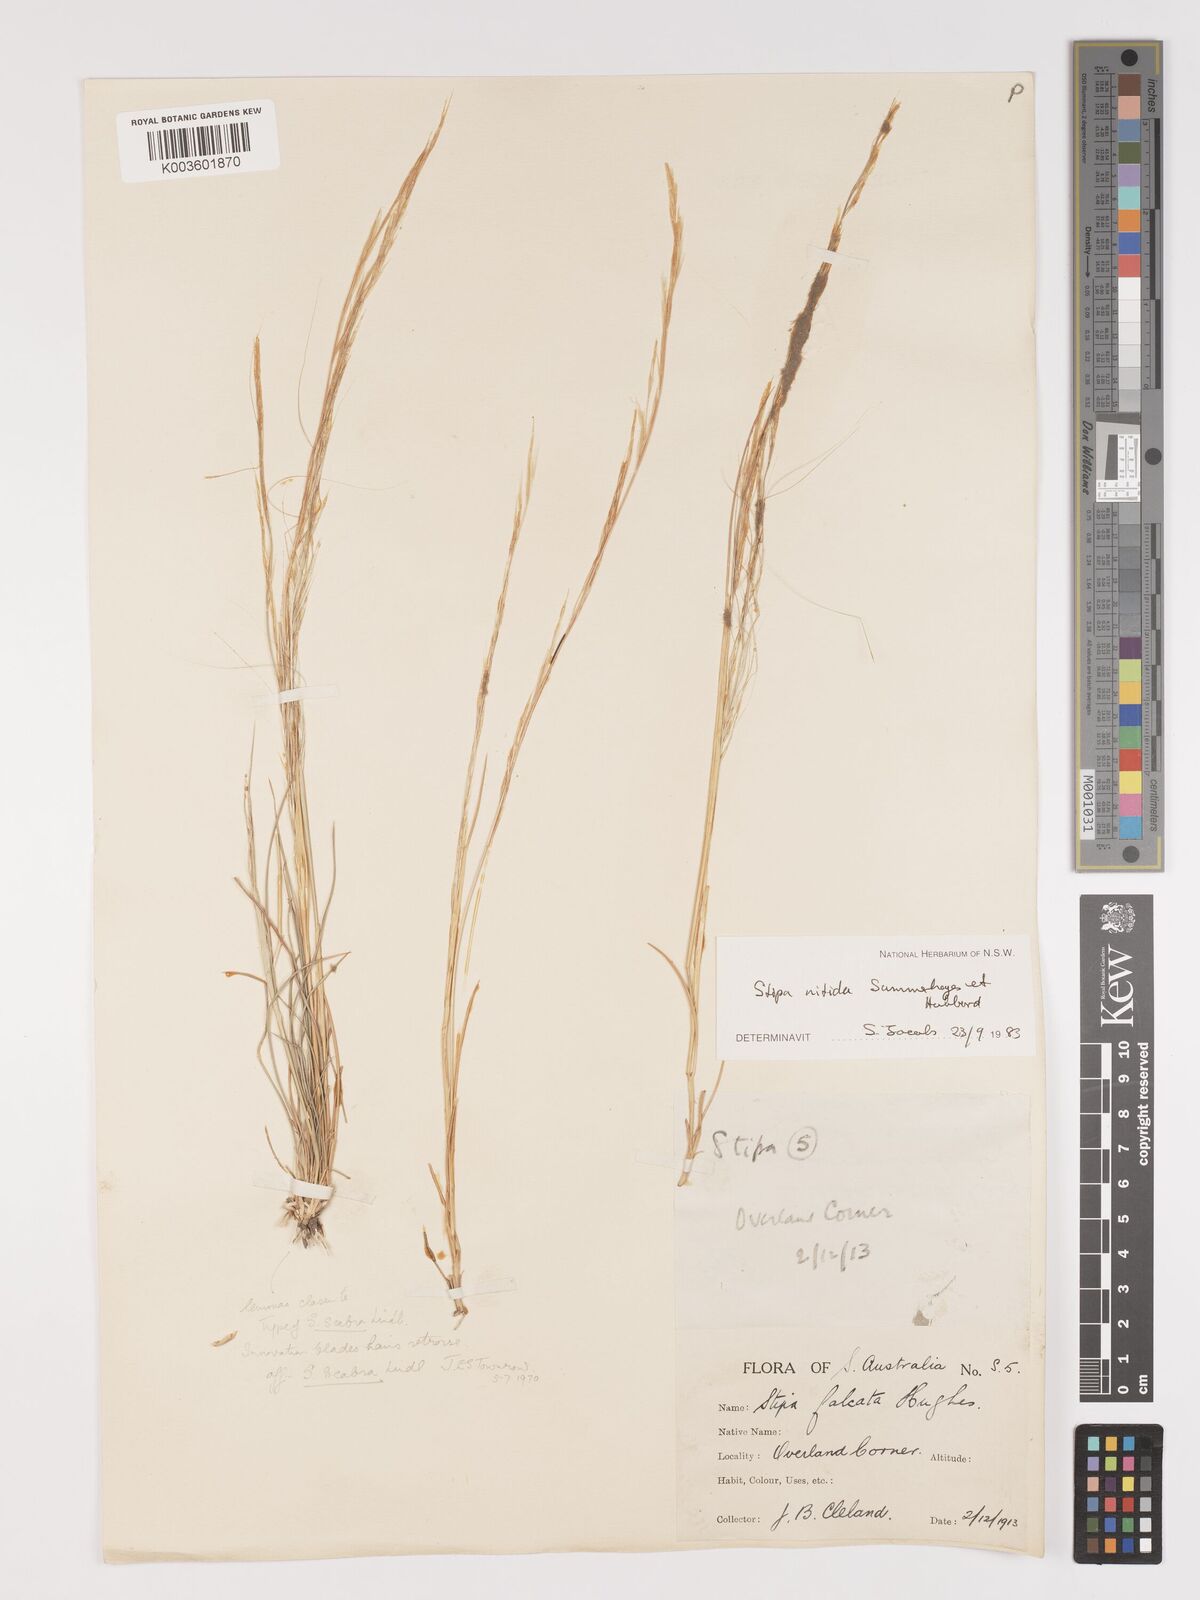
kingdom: Plantae
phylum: Tracheophyta
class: Liliopsida
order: Poales
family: Poaceae
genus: Austrostipa
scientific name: Austrostipa nitida
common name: Balcarra grass
